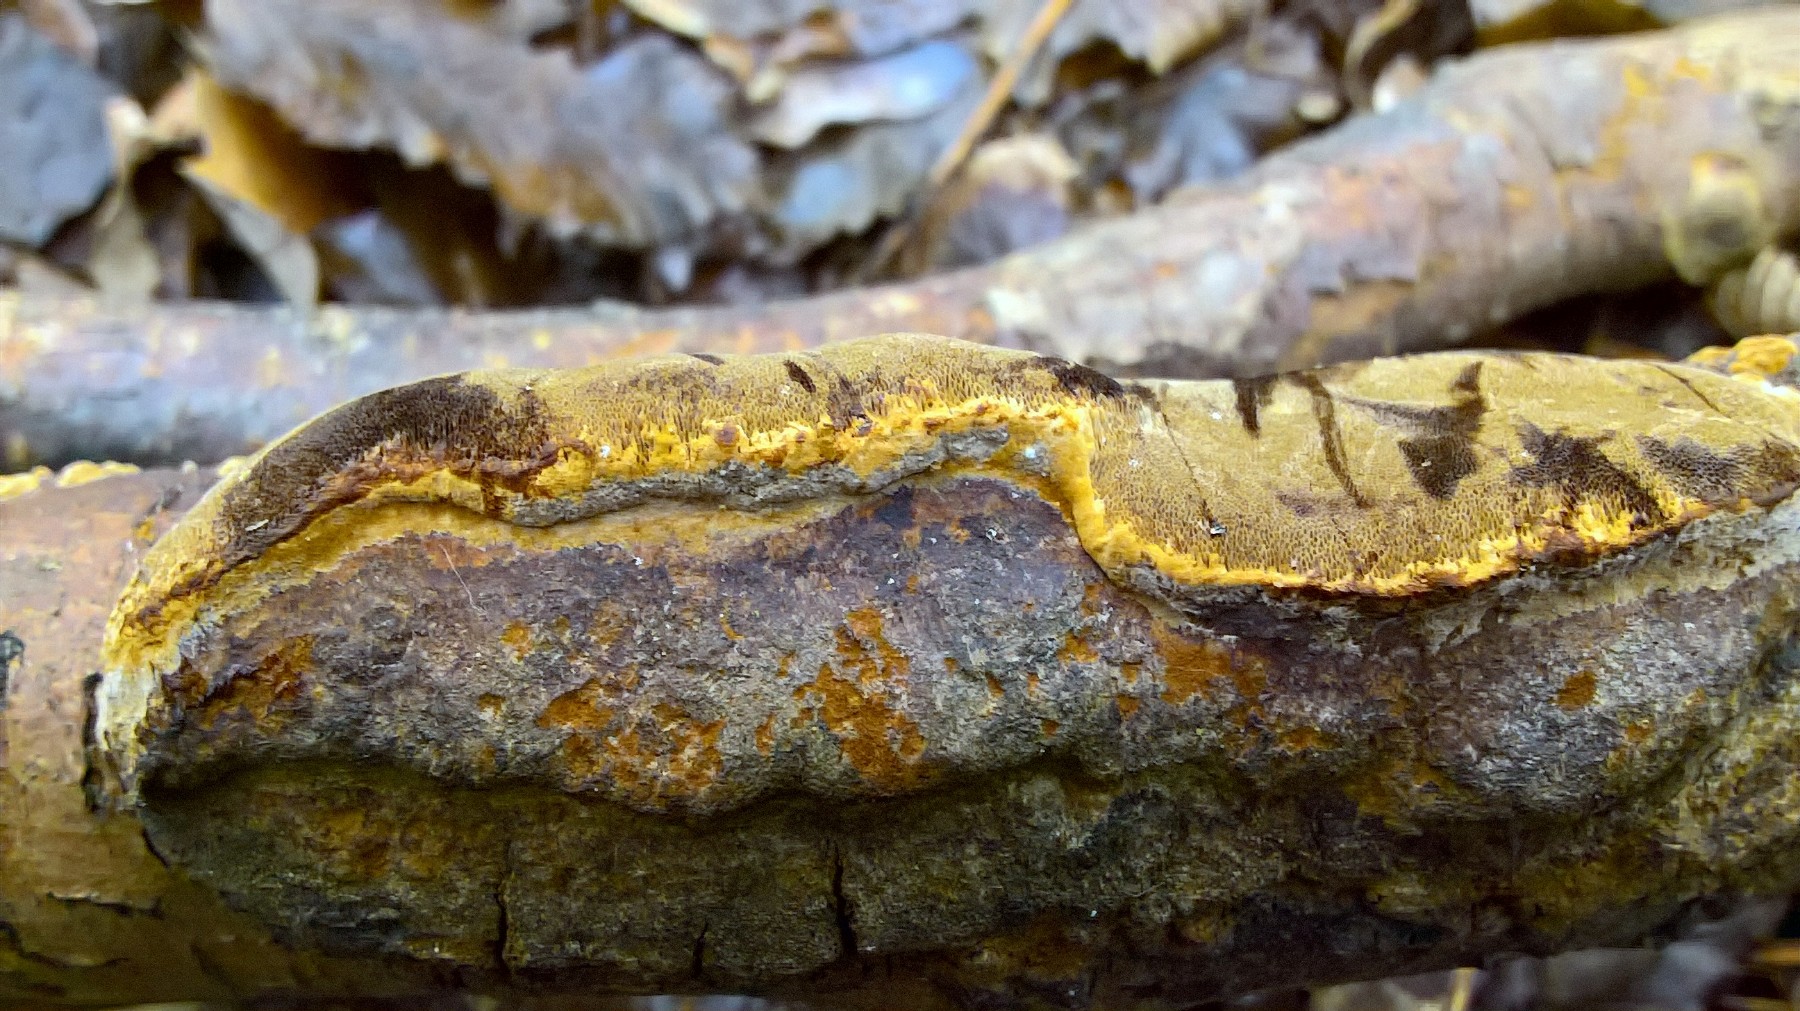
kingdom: Fungi
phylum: Basidiomycota
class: Agaricomycetes
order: Hymenochaetales
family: Hymenochaetaceae
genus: Mensularia
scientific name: Mensularia nodulosa
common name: bøge-spejlporesvamp
